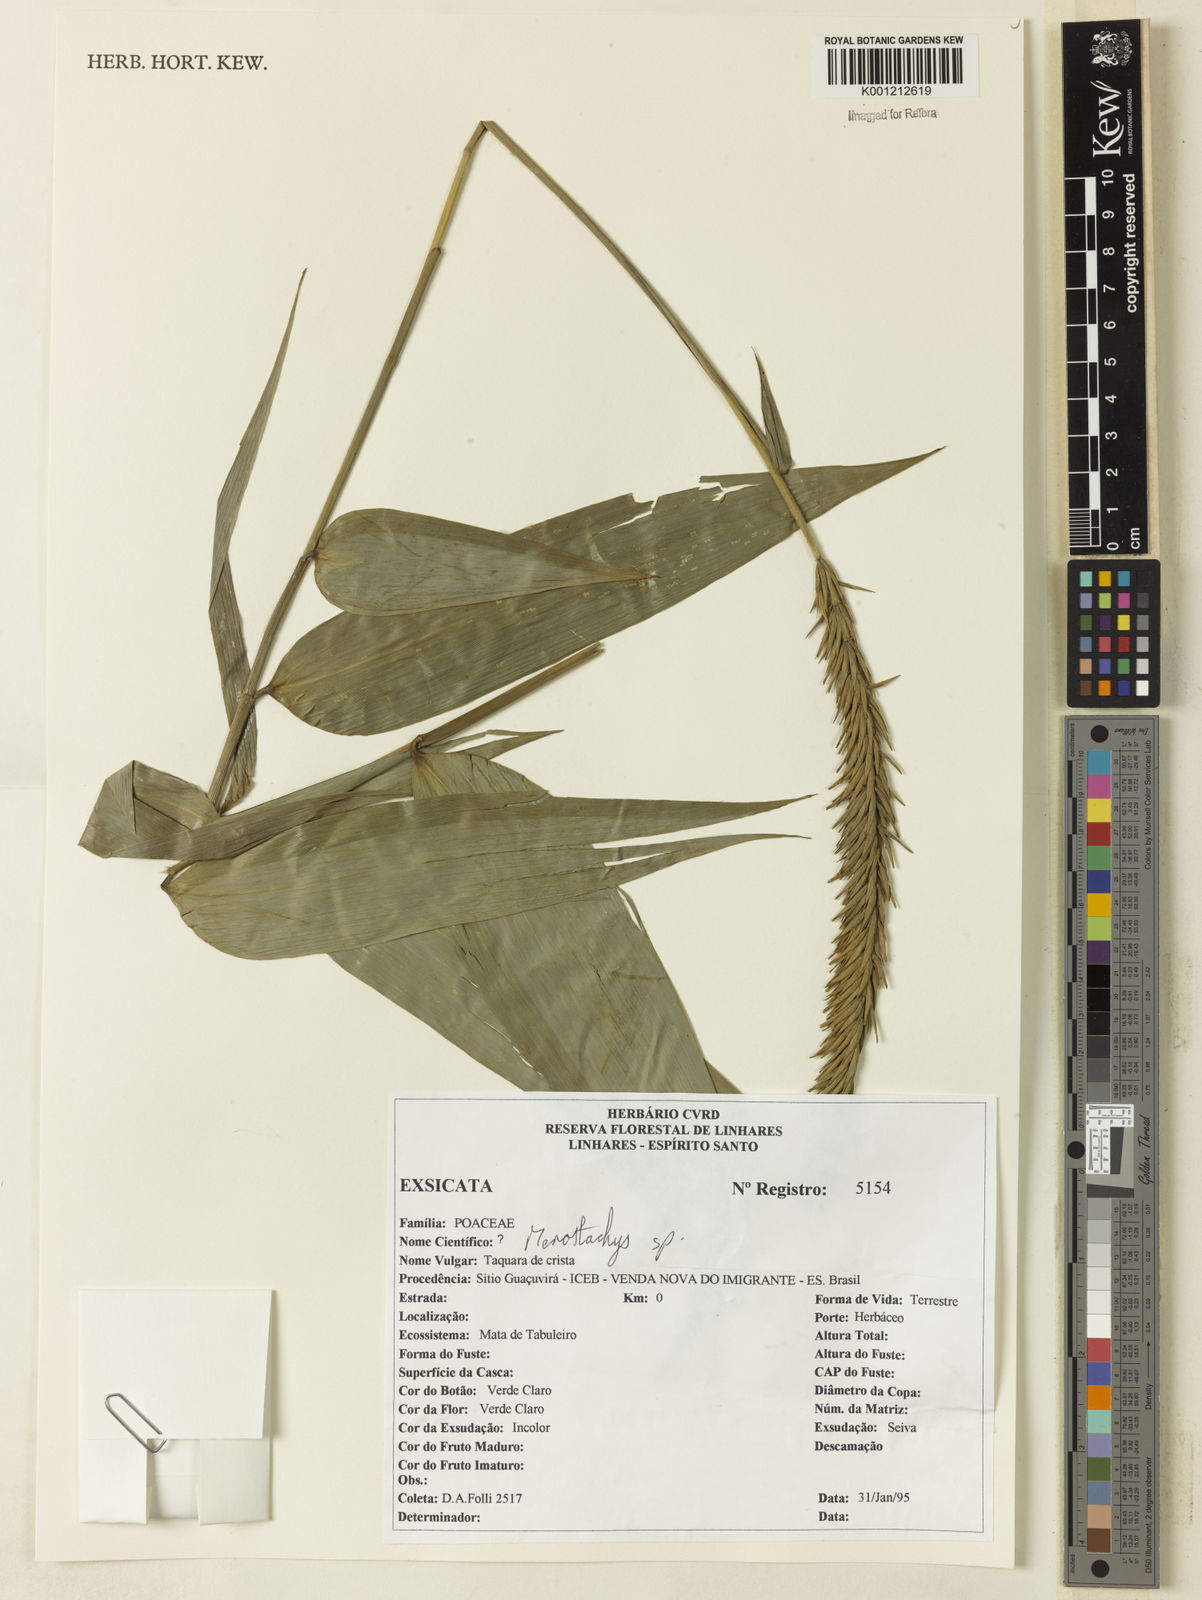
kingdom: Plantae
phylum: Tracheophyta
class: Liliopsida
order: Poales
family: Poaceae
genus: Merostachys
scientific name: Merostachys
